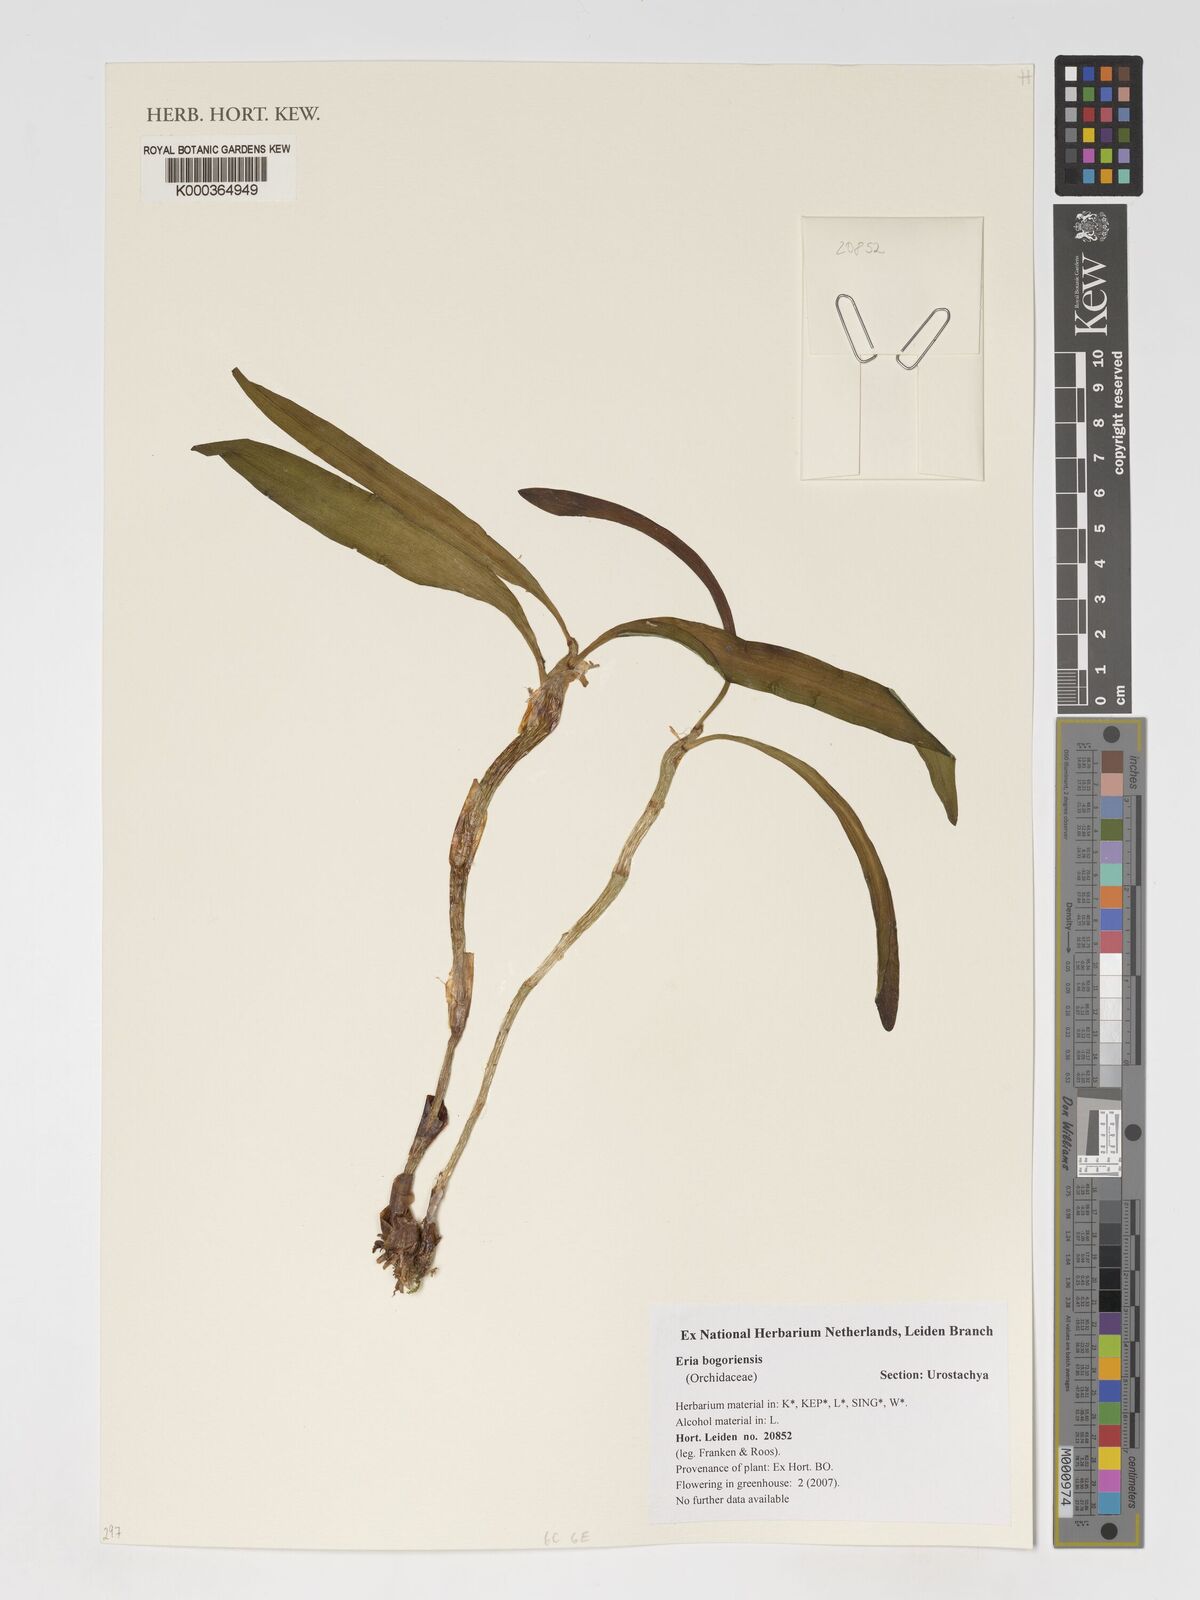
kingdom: Plantae
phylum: Tracheophyta
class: Liliopsida
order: Asparagales
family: Orchidaceae
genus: Pinalia
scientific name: Pinalia bogoriensis
